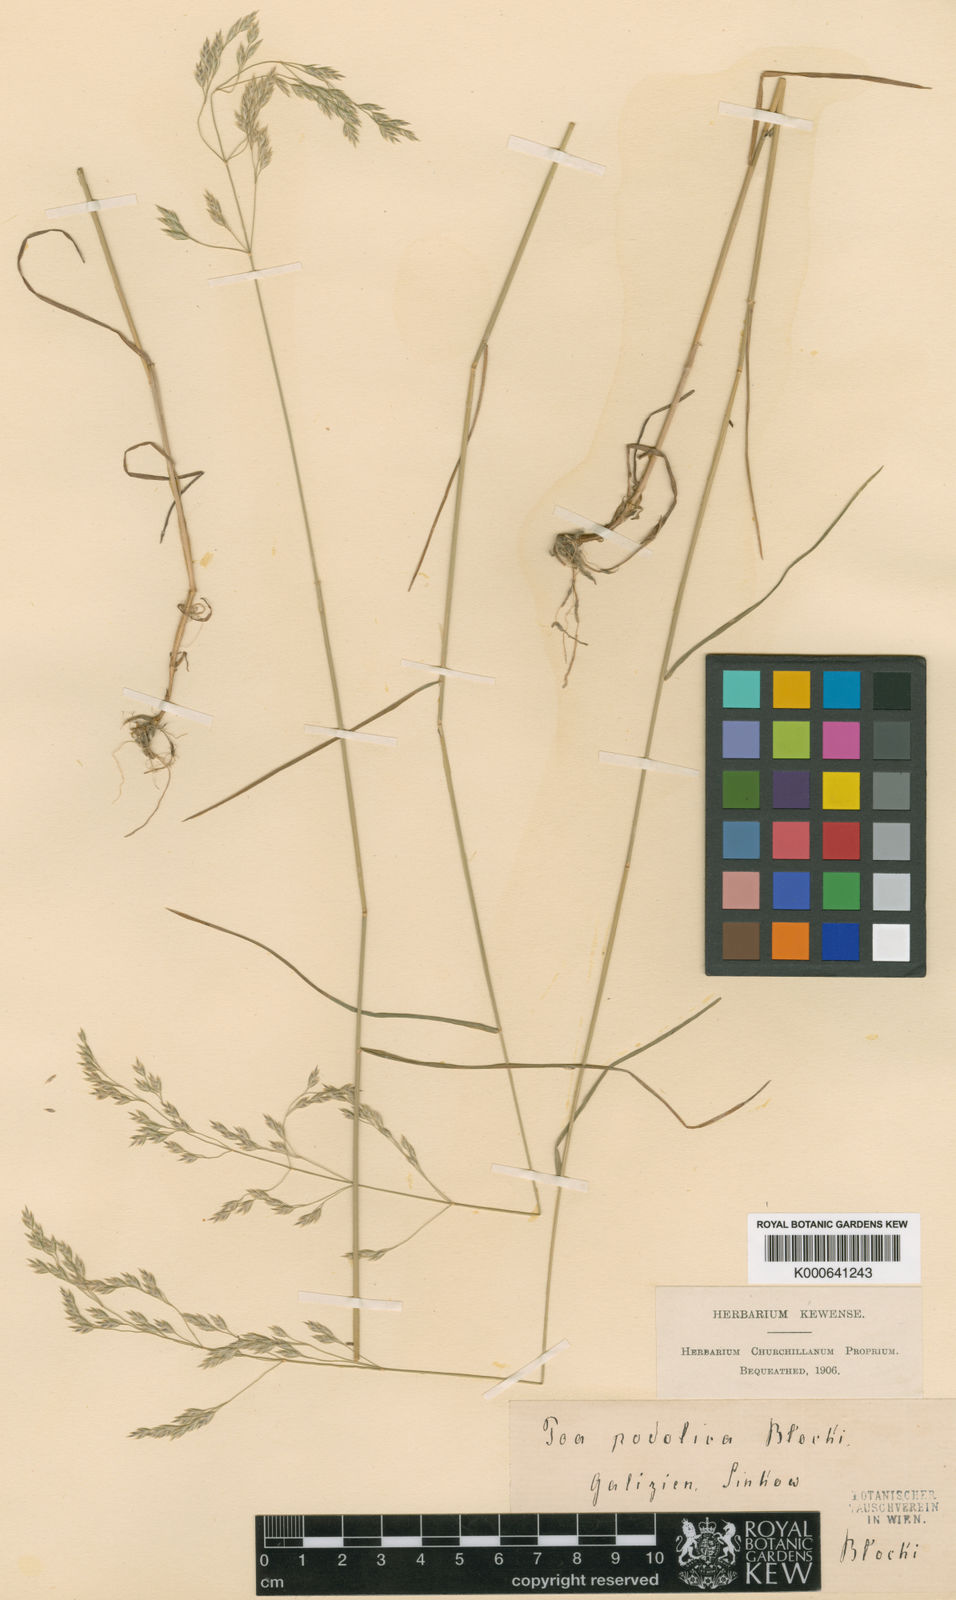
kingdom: Plantae
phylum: Tracheophyta
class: Liliopsida
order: Poales
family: Poaceae
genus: Poa
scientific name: Poa pannonica
